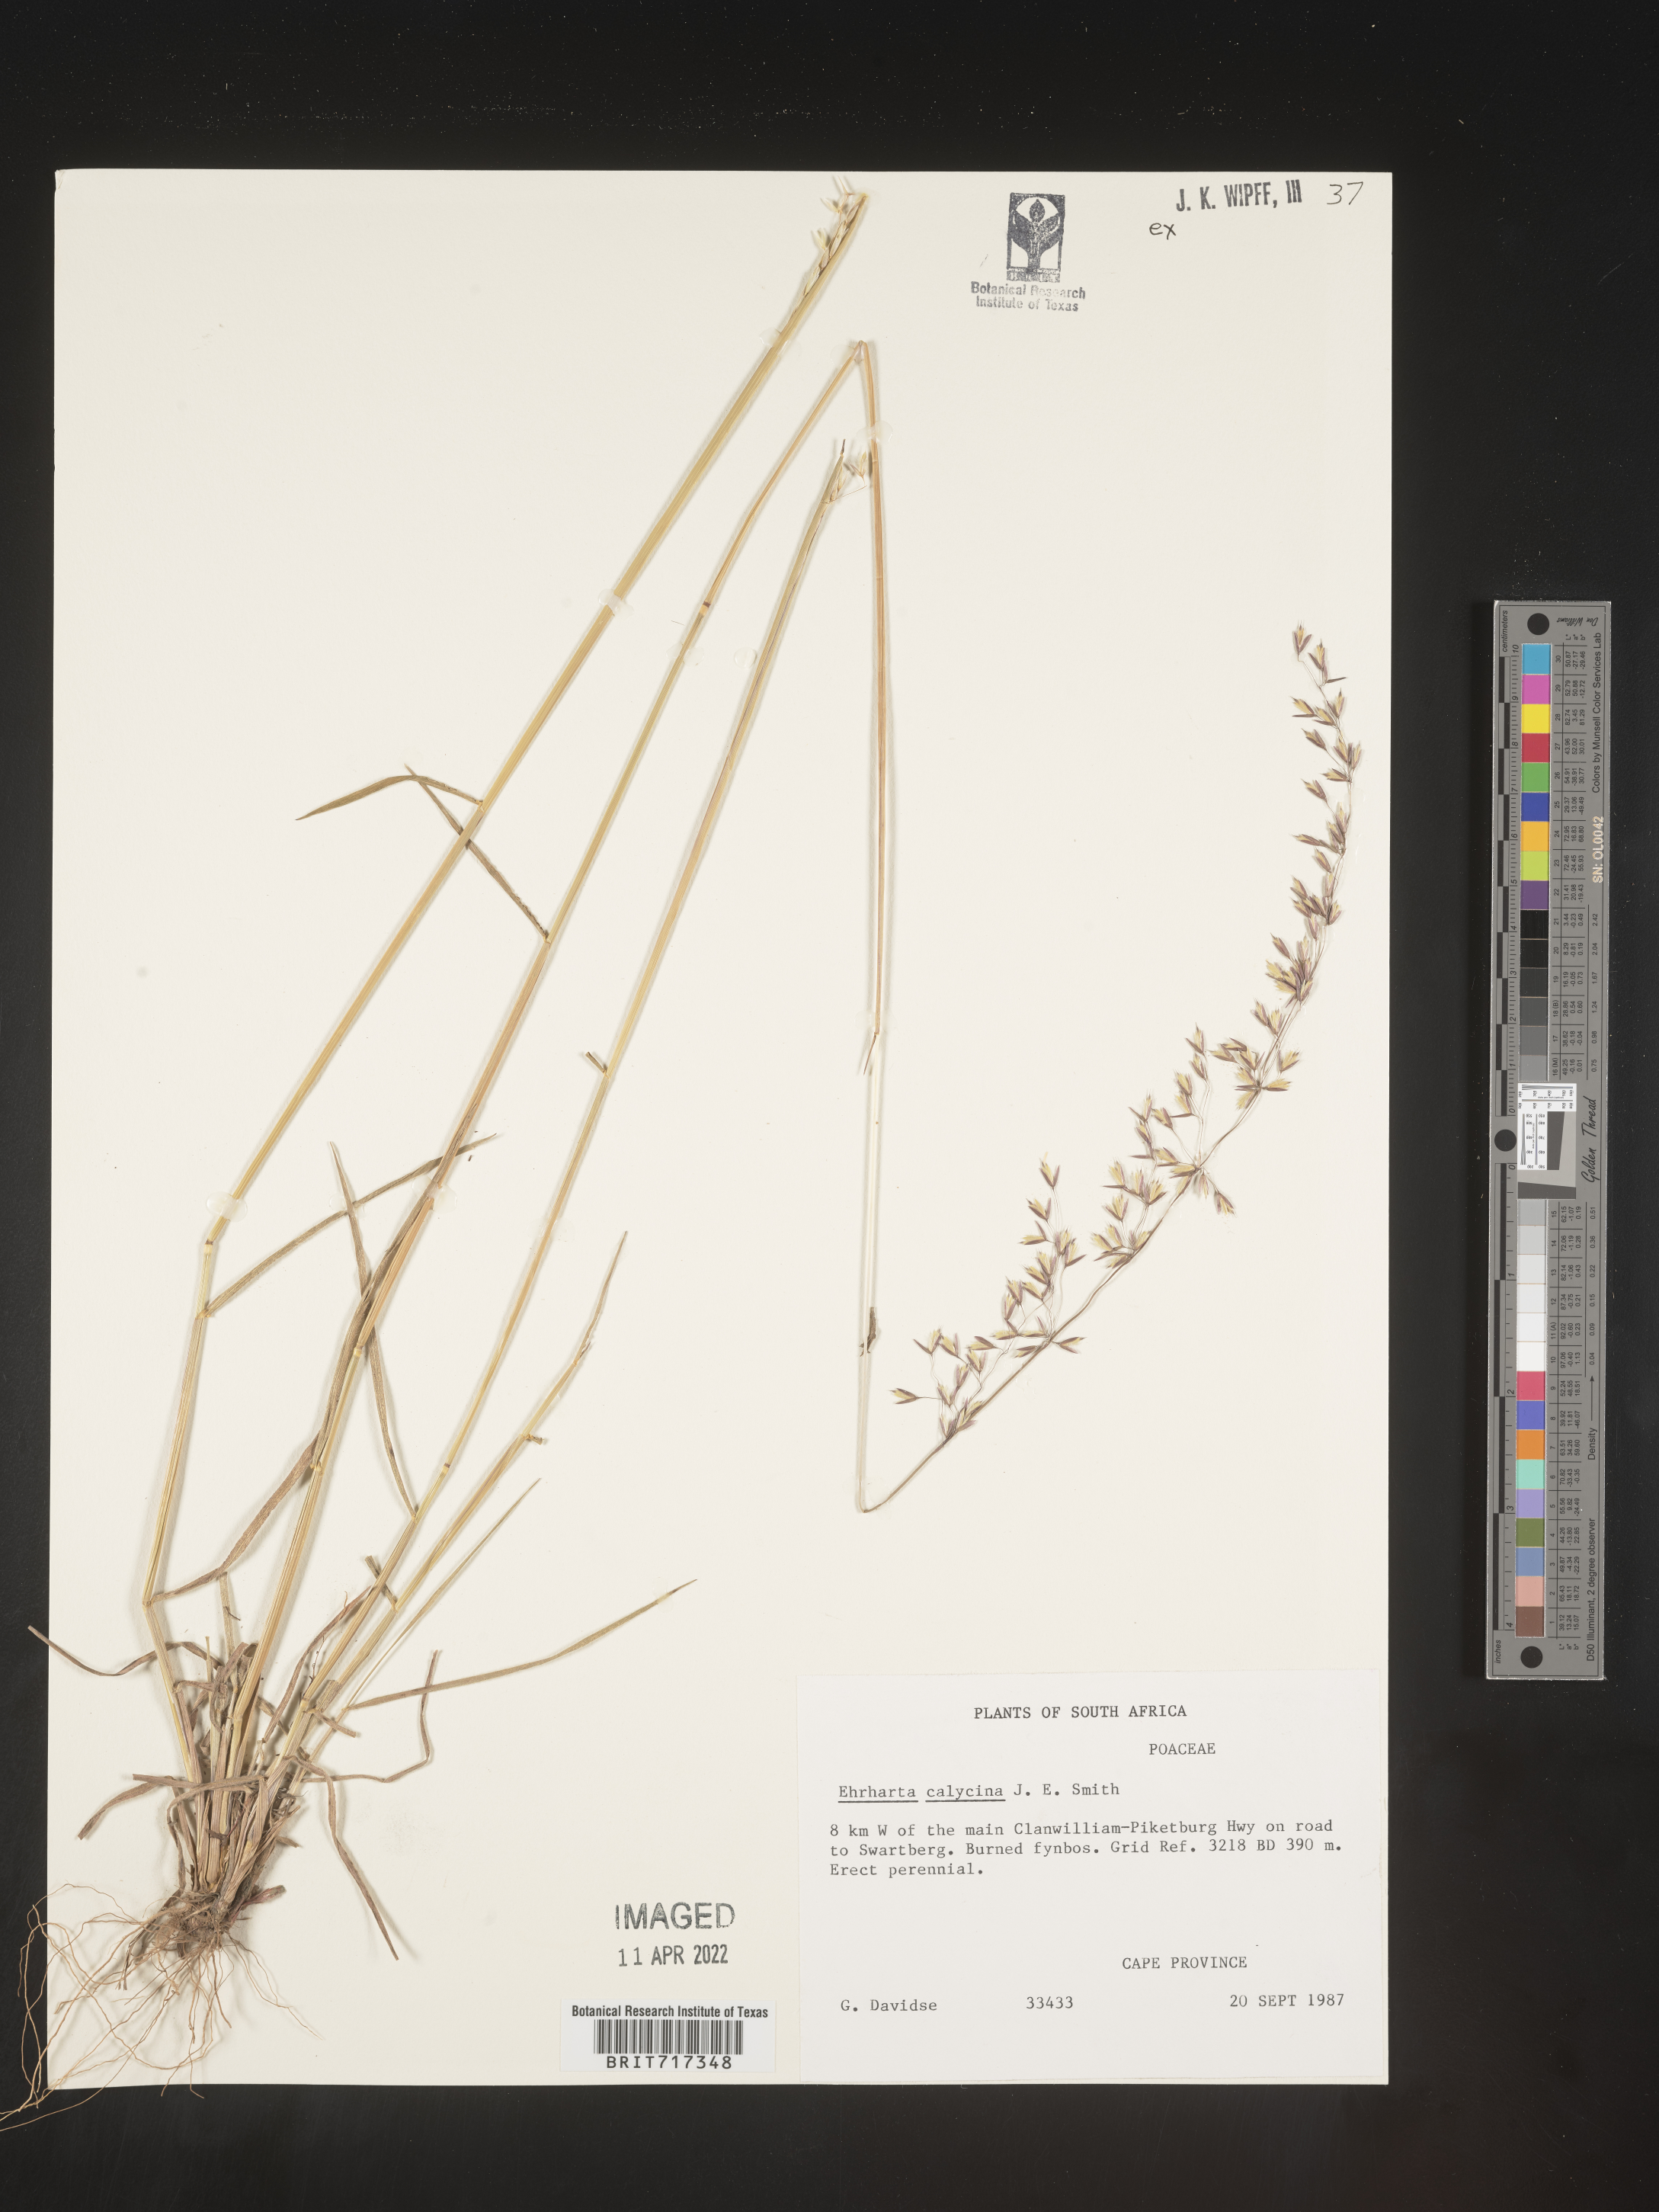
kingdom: Plantae
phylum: Tracheophyta
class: Liliopsida
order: Poales
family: Poaceae
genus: Ehrharta
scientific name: Ehrharta
